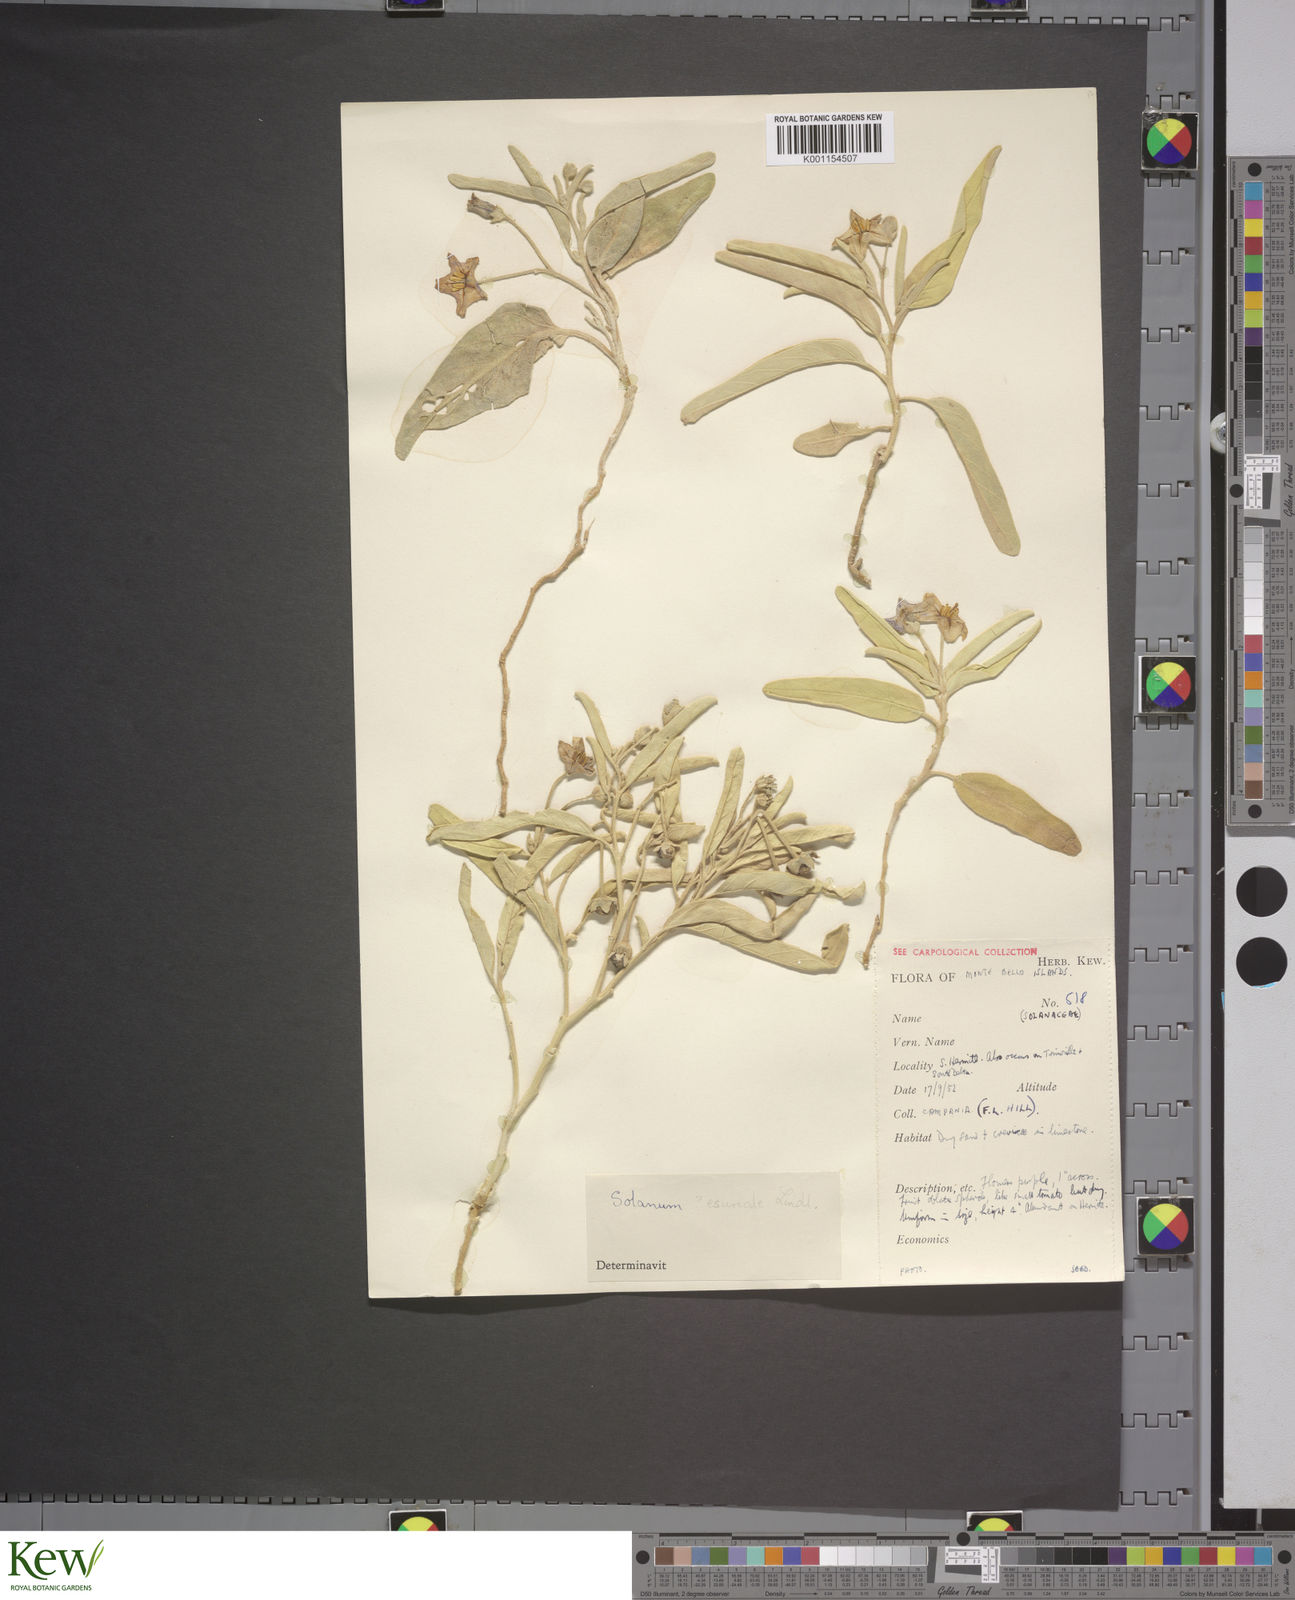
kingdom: Plantae
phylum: Tracheophyta
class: Magnoliopsida
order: Solanales
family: Solanaceae
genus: Solanum
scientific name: Solanum esuriale
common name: Wild tomato
